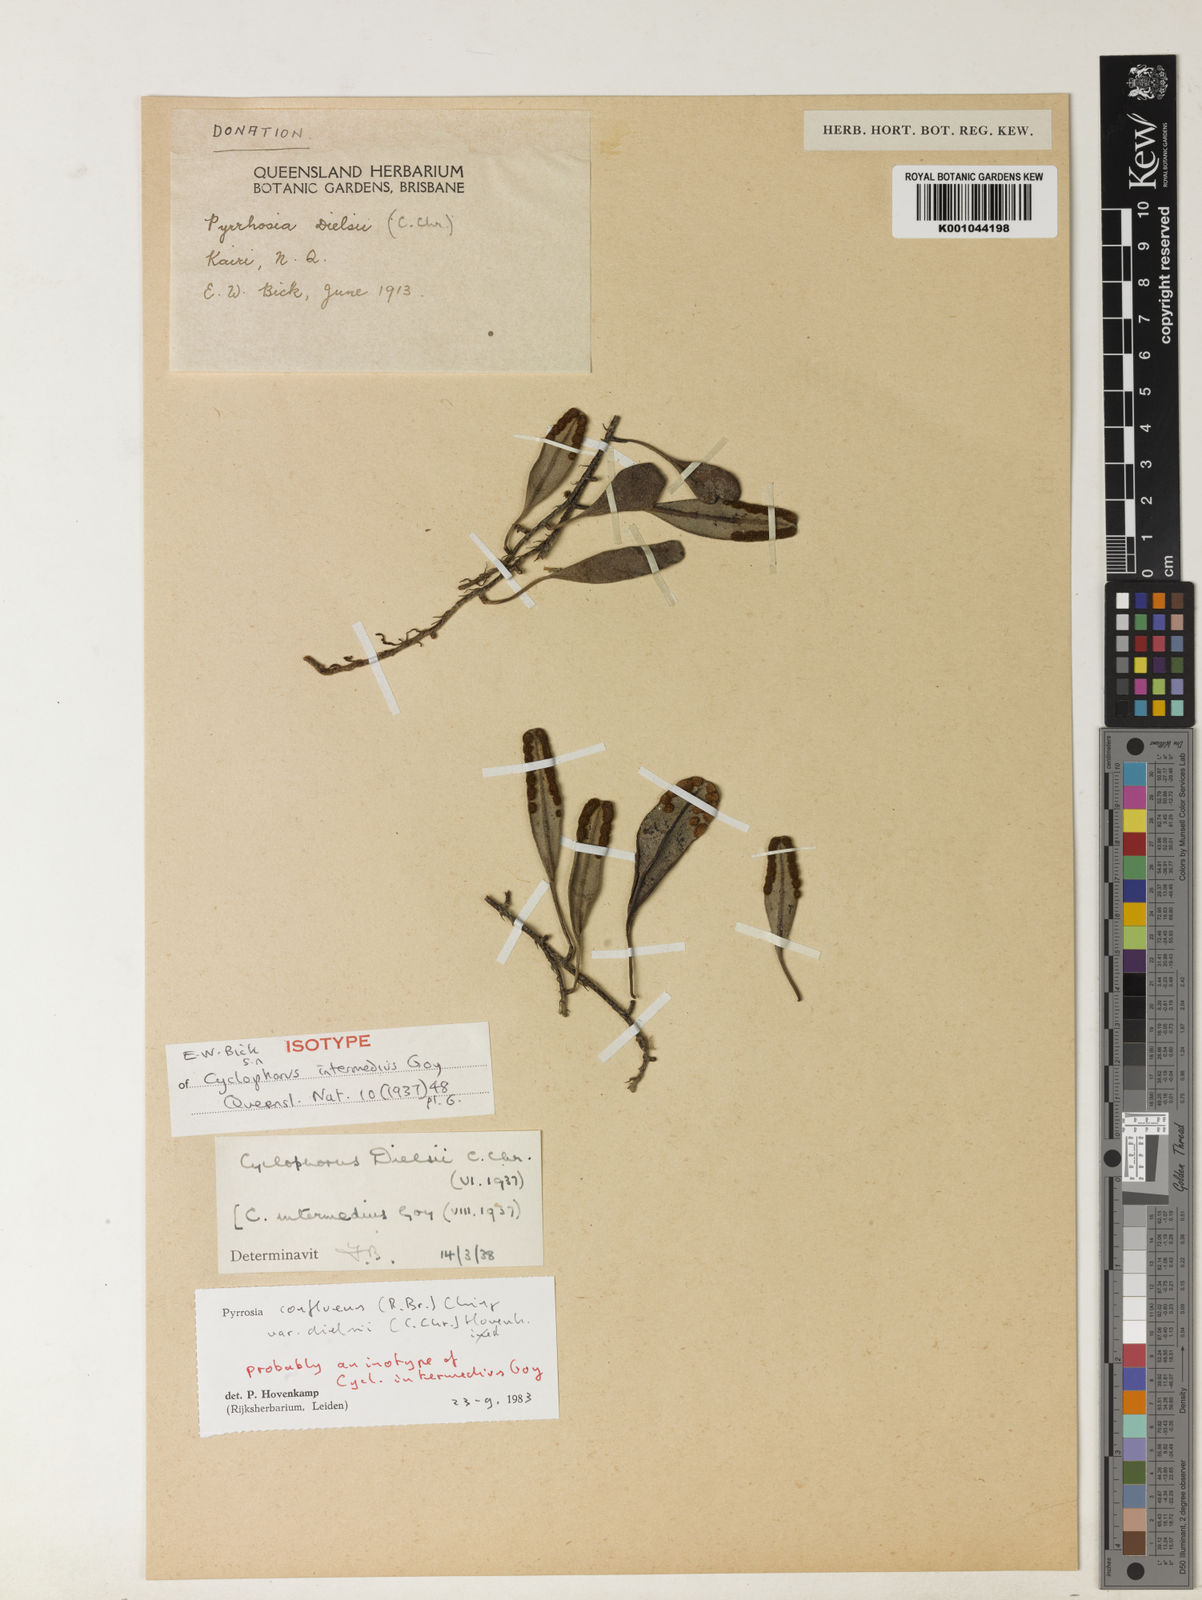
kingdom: Plantae
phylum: Tracheophyta
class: Polypodiopsida
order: Polypodiales
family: Polypodiaceae
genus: Pyrrosia
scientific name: Pyrrosia confluens
